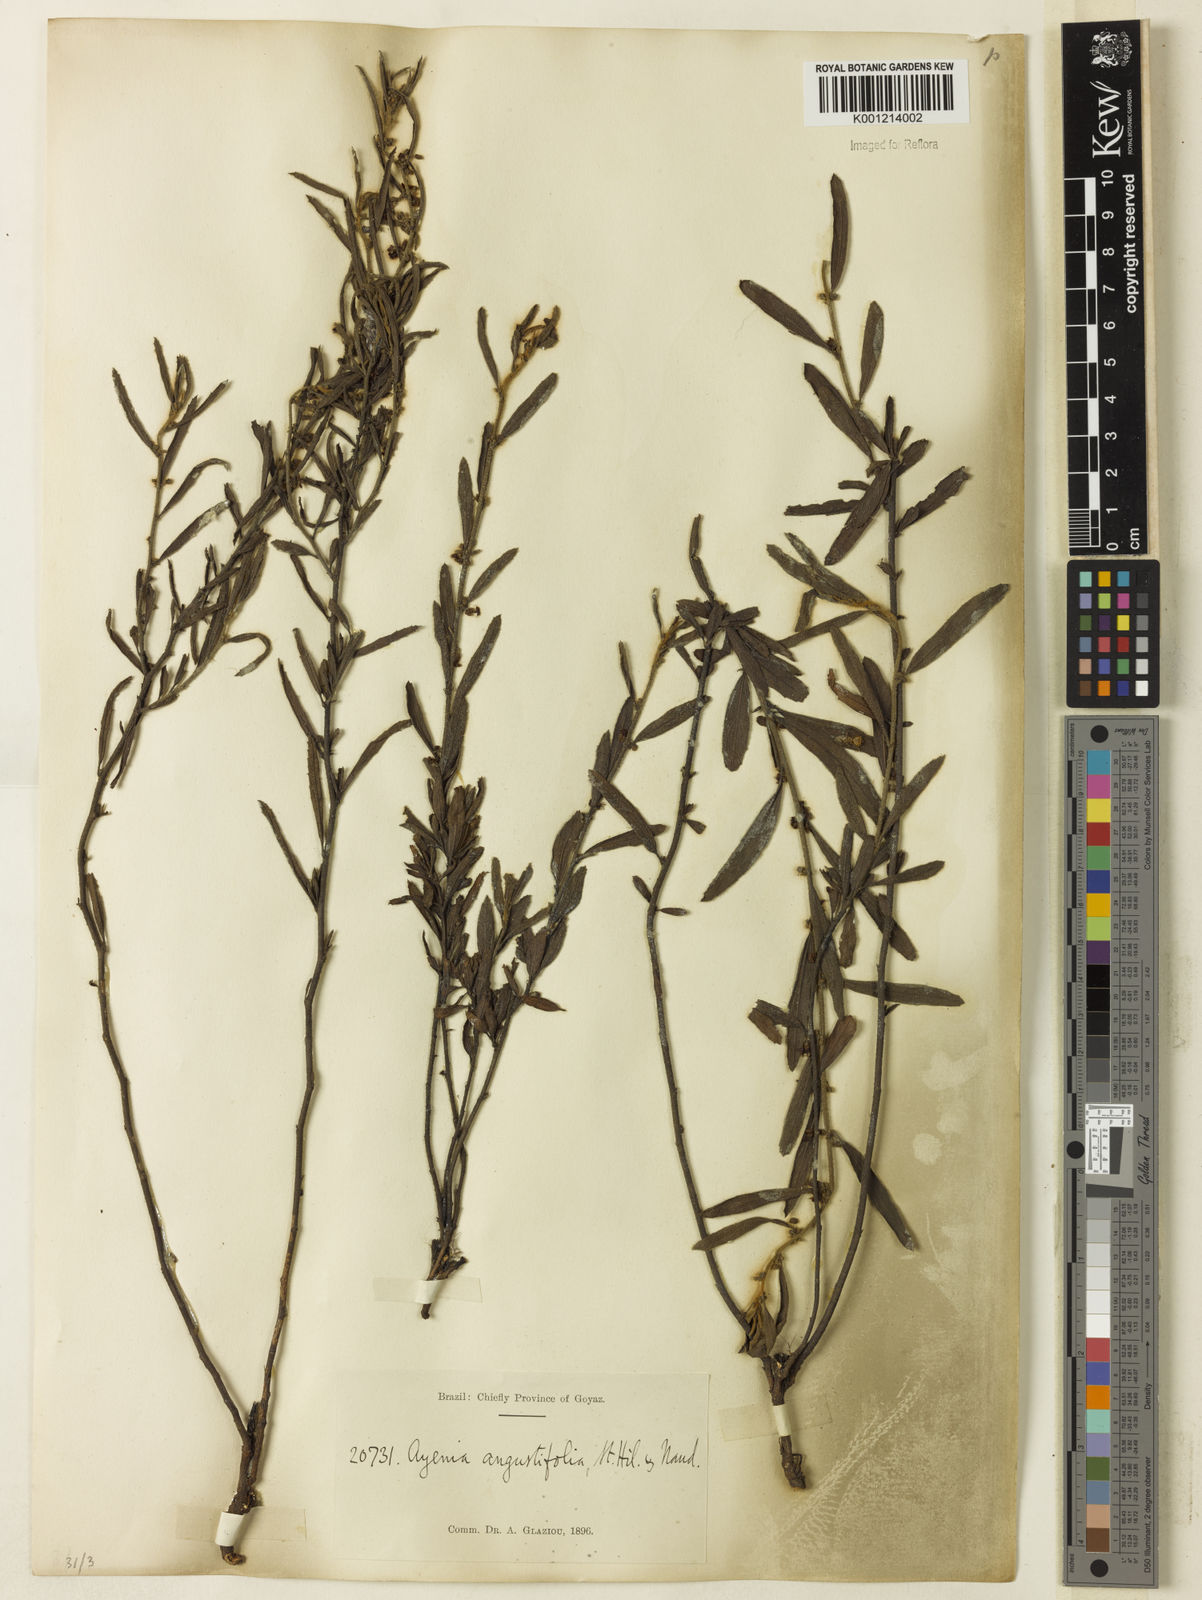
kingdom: Plantae
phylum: Tracheophyta
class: Magnoliopsida
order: Malvales
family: Malvaceae
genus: Ayenia
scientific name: Ayenia angustifolia
